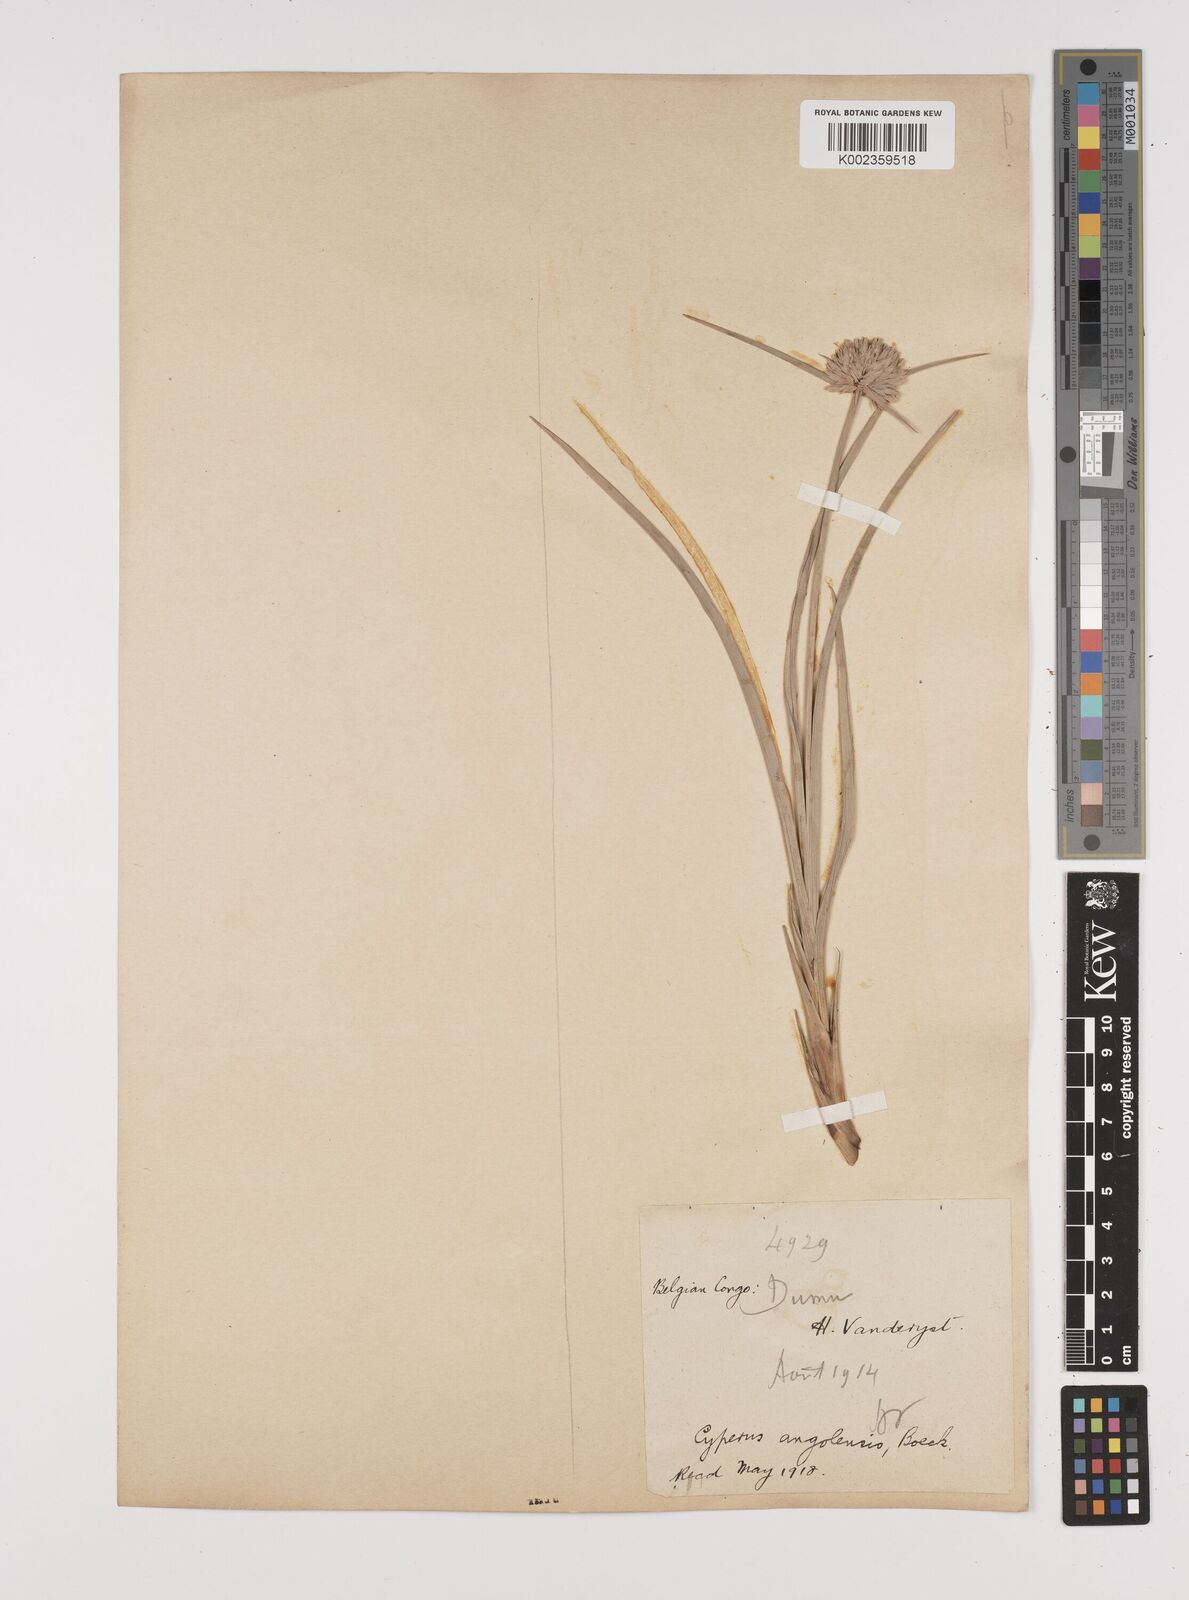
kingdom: Plantae
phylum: Tracheophyta
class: Liliopsida
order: Poales
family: Cyperaceae
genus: Cyperus
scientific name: Cyperus angolensis
